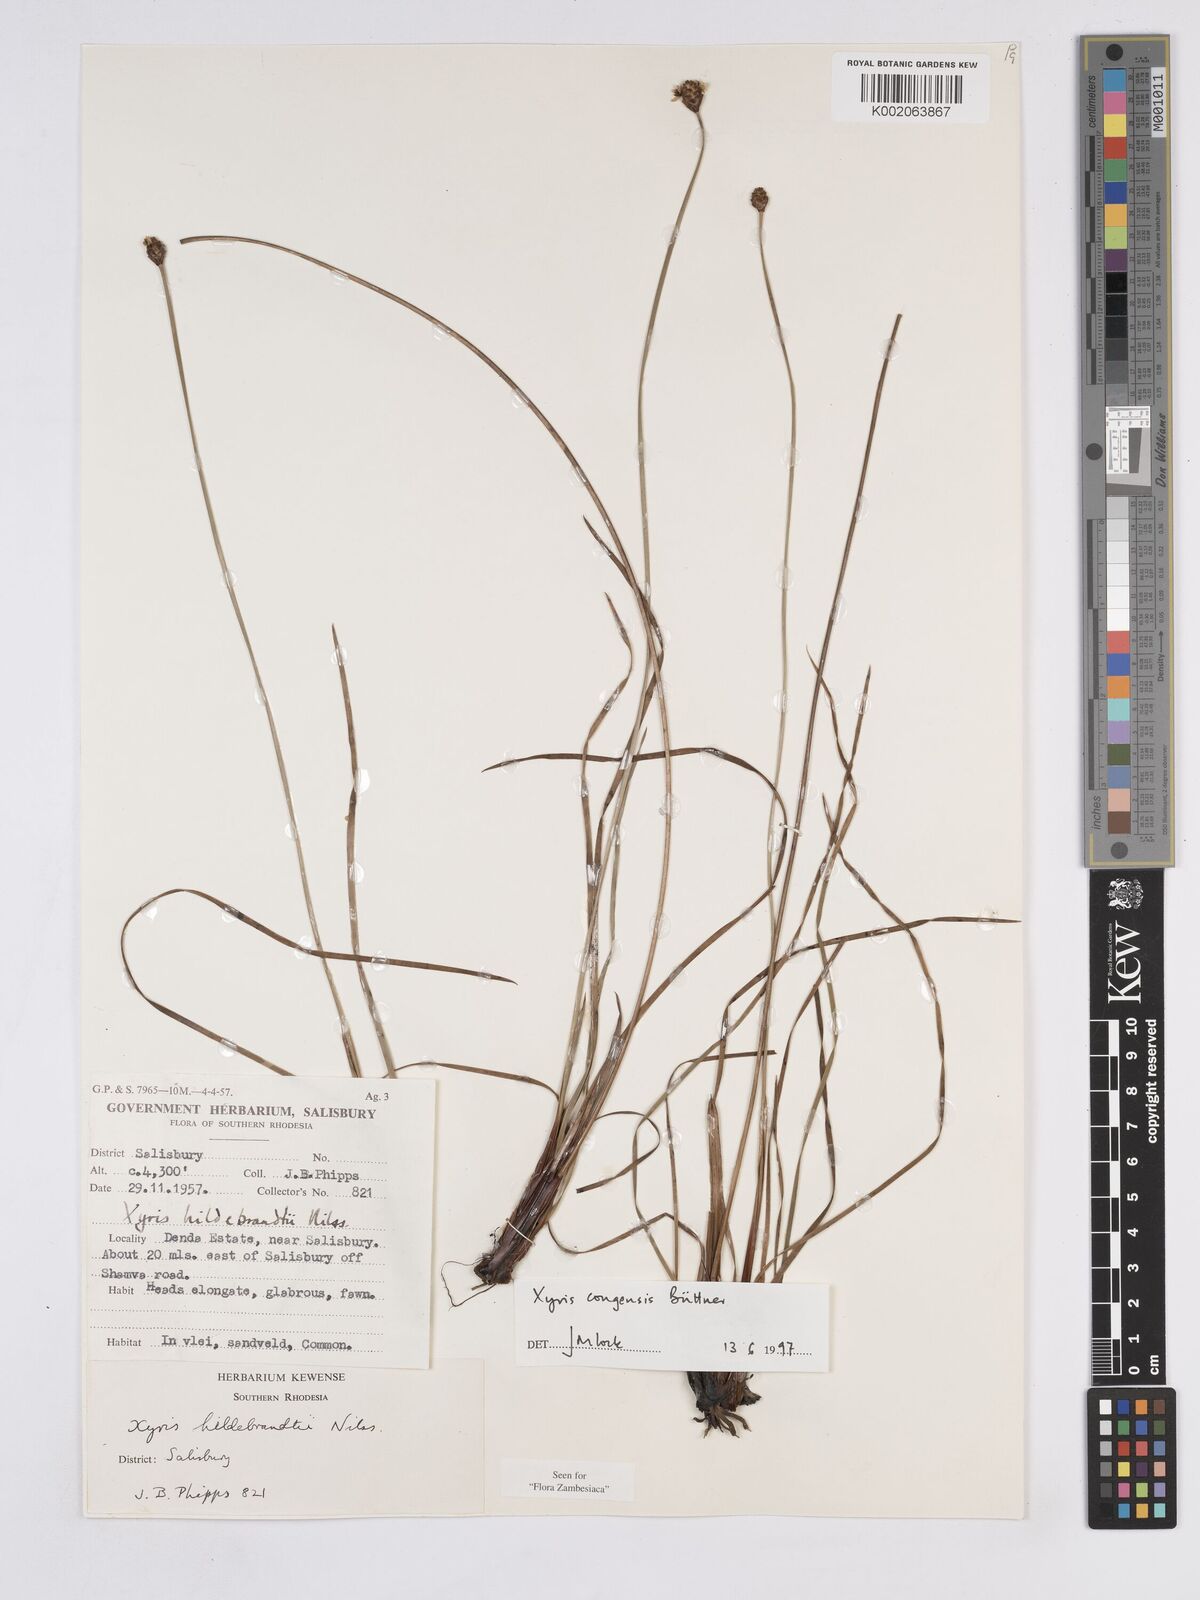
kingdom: Plantae
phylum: Tracheophyta
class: Liliopsida
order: Poales
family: Xyridaceae
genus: Xyris
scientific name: Xyris congensis
